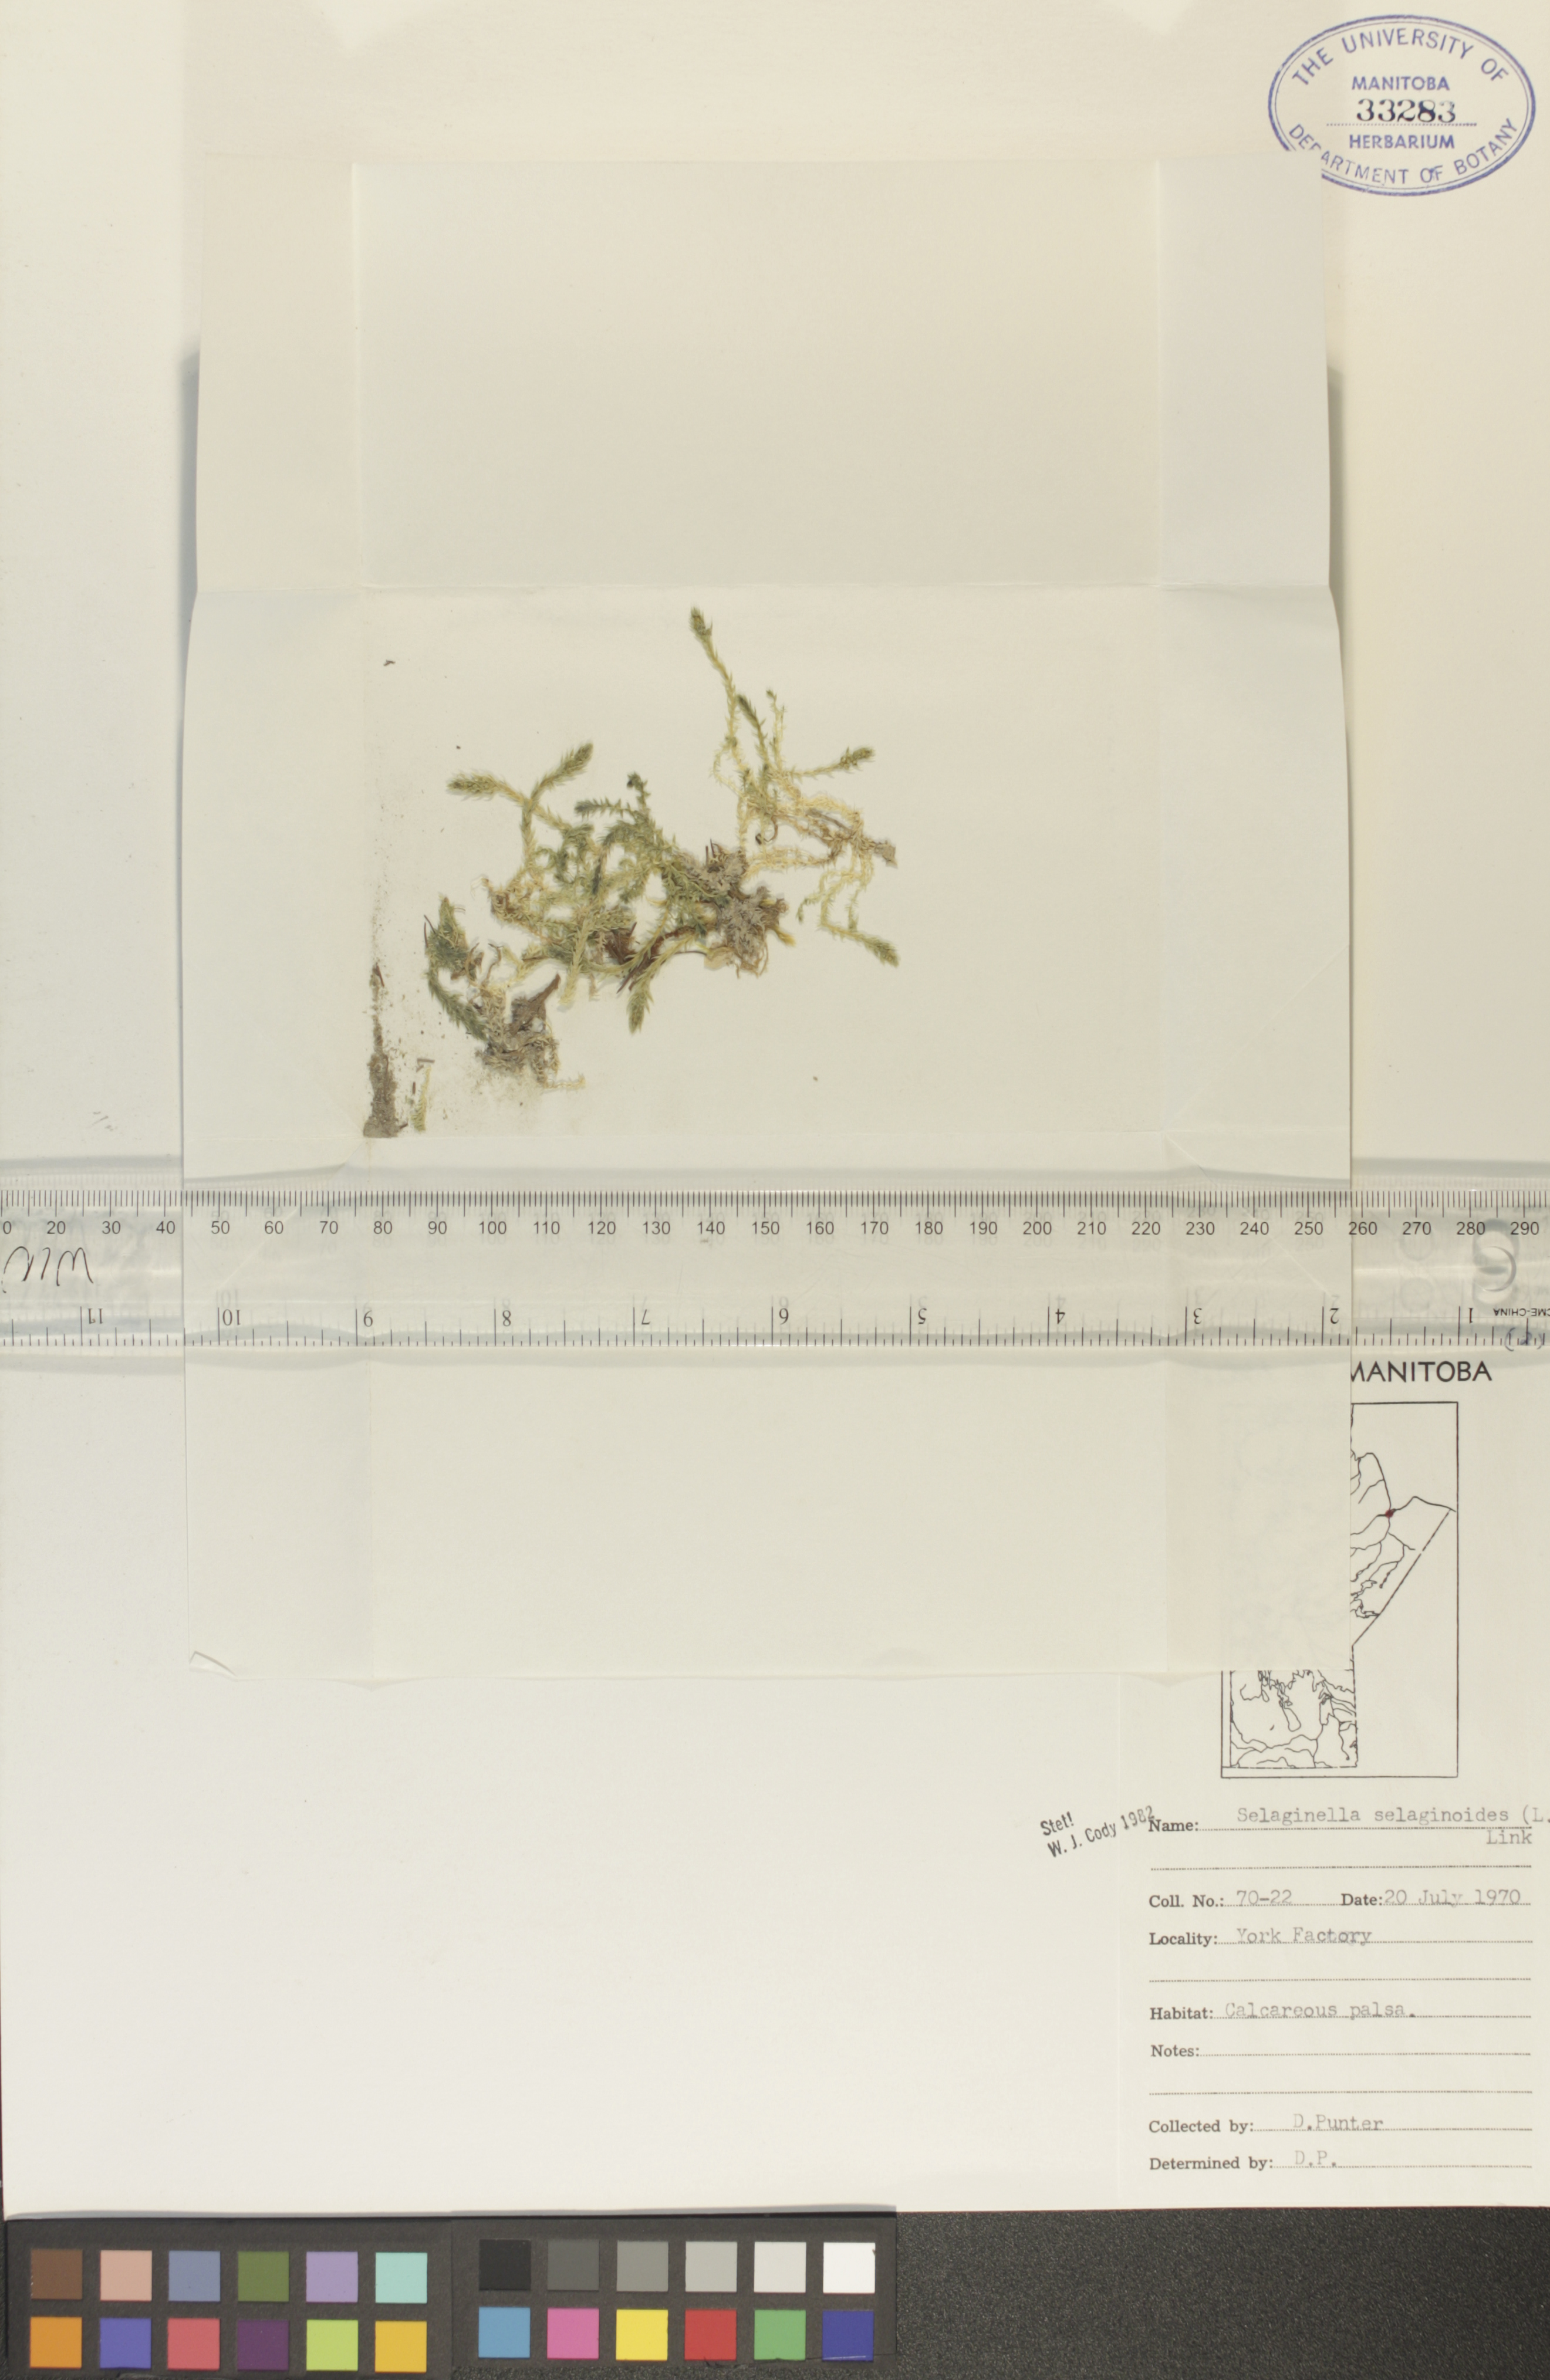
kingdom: Plantae
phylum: Tracheophyta
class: Lycopodiopsida
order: Selaginellales
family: Selaginellaceae
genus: Selaginella
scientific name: Selaginella selaginoides
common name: Prickly mountain-moss
